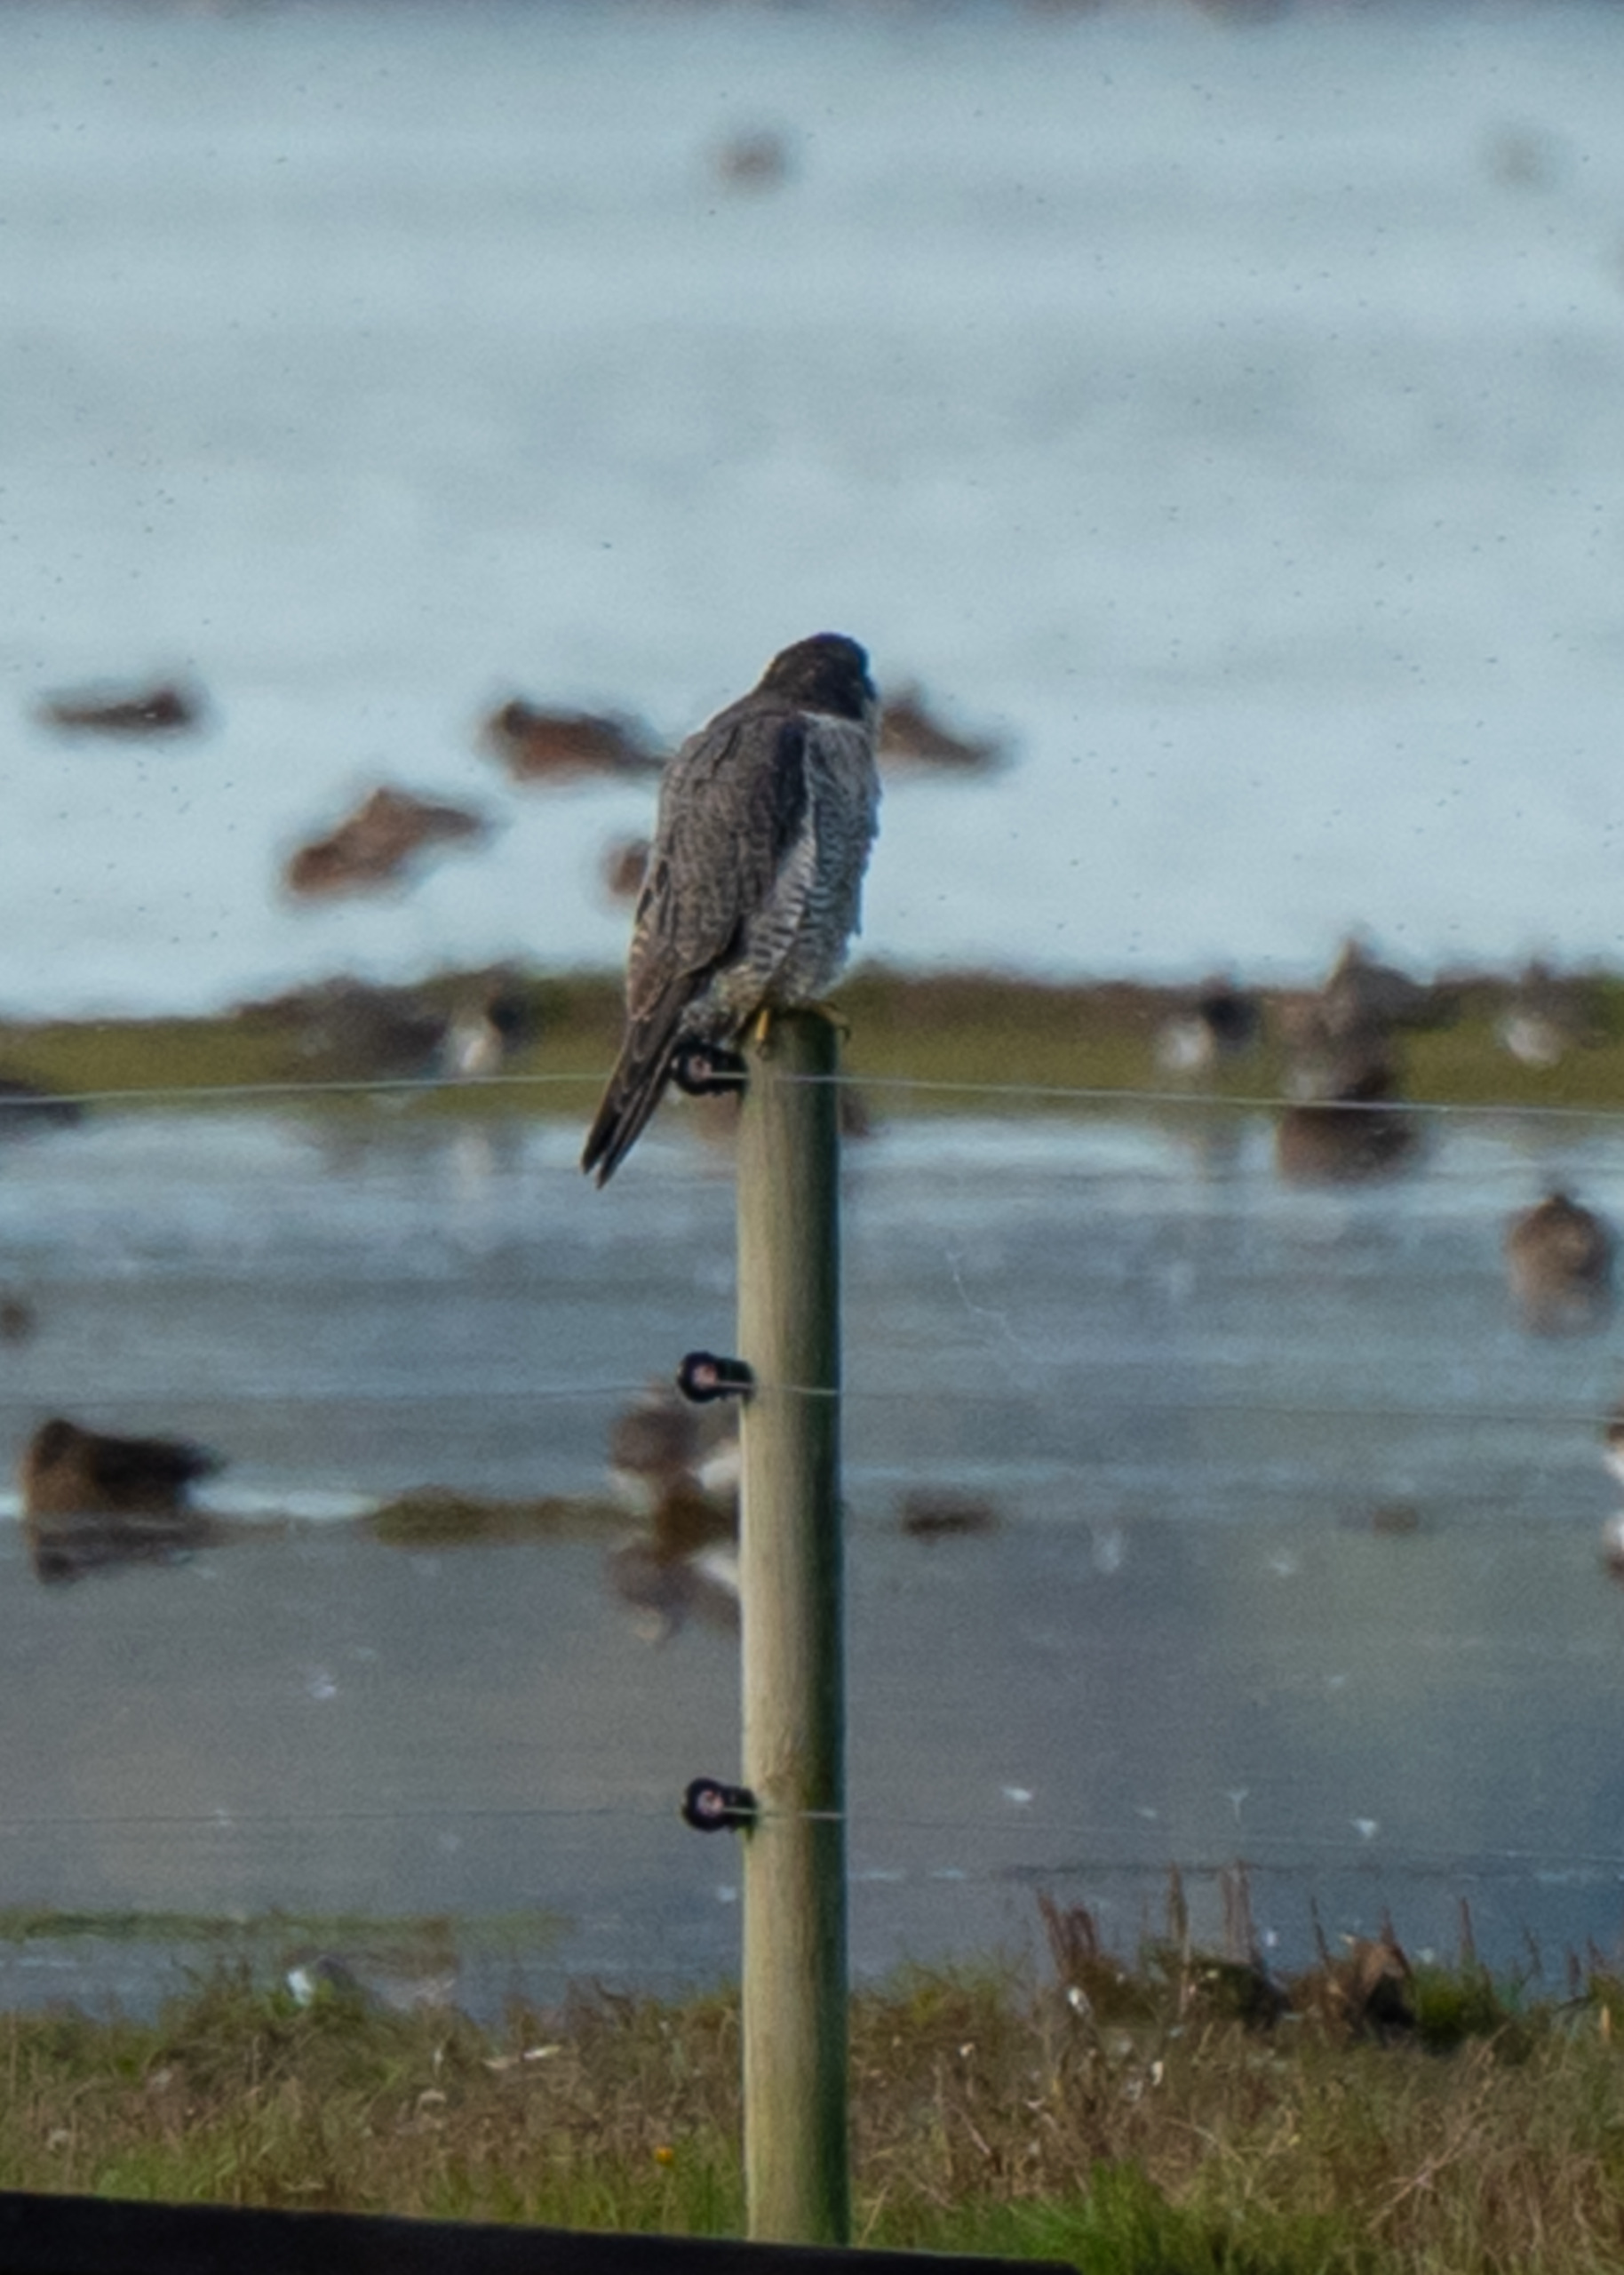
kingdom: Animalia
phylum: Chordata
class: Aves
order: Falconiformes
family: Falconidae
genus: Falco
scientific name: Falco peregrinus
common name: Vandrefalk
